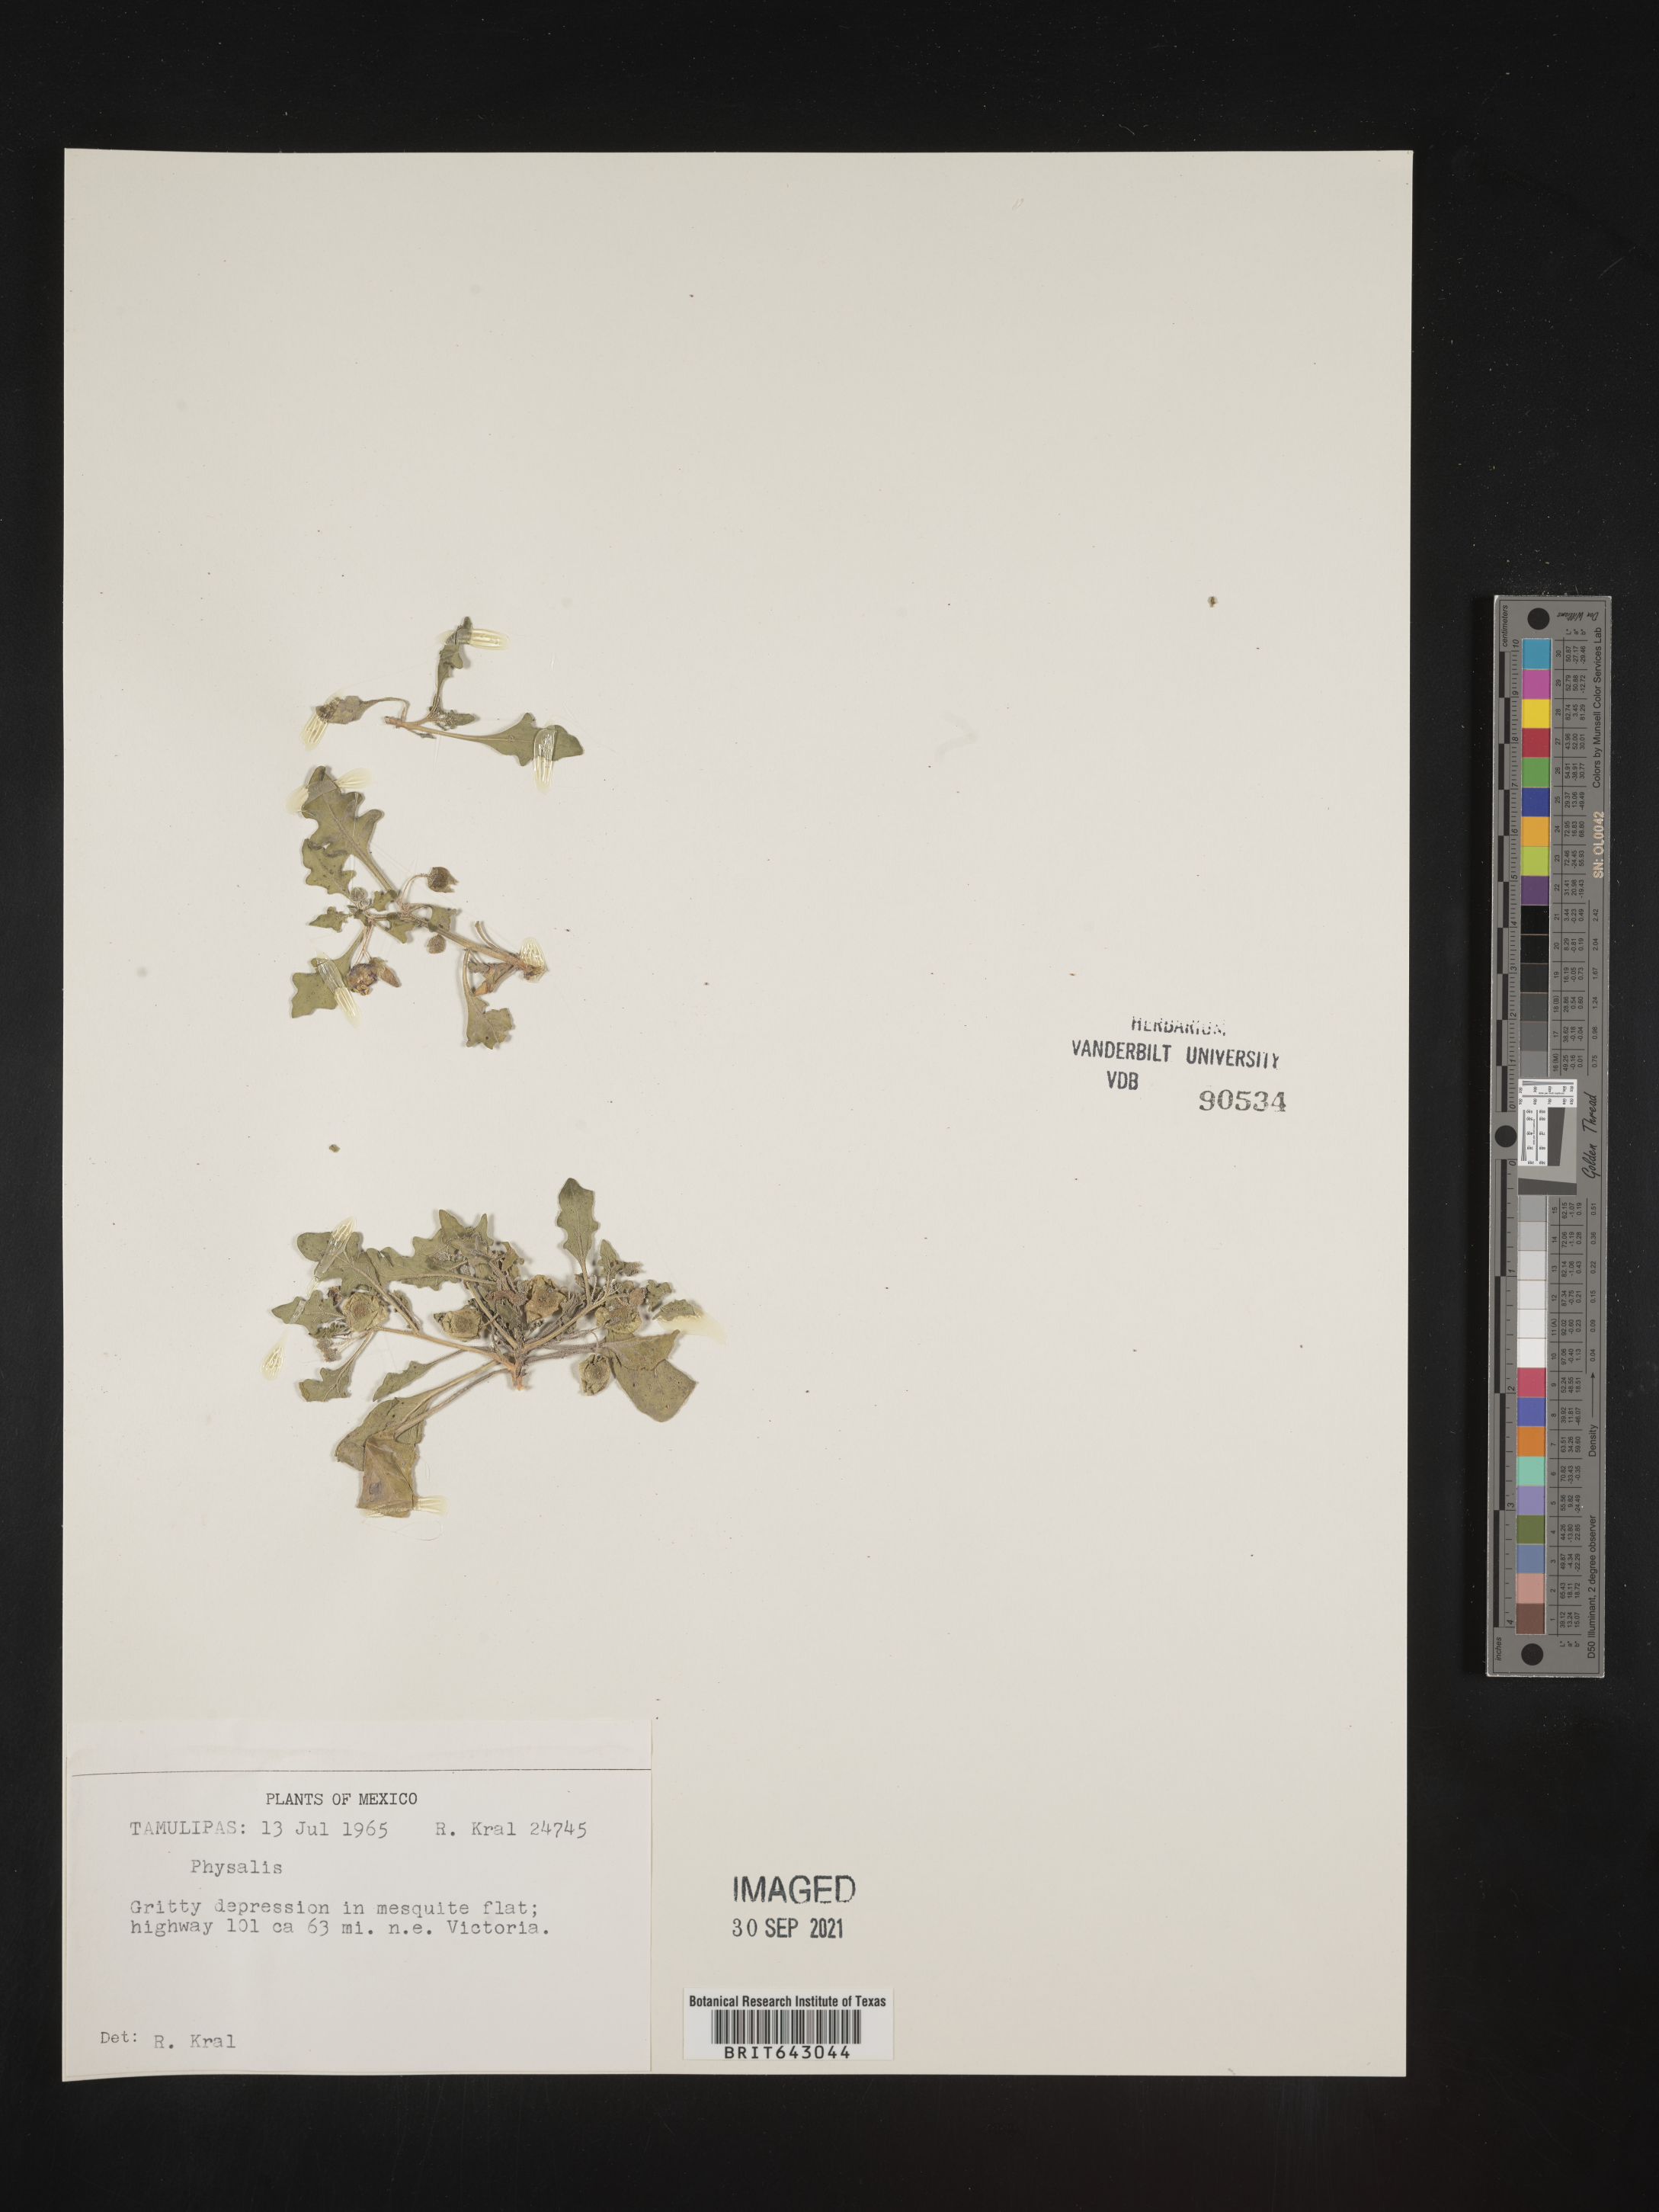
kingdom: Plantae
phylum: Tracheophyta
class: Magnoliopsida
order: Solanales
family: Solanaceae
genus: Physalis
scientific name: Physalis
